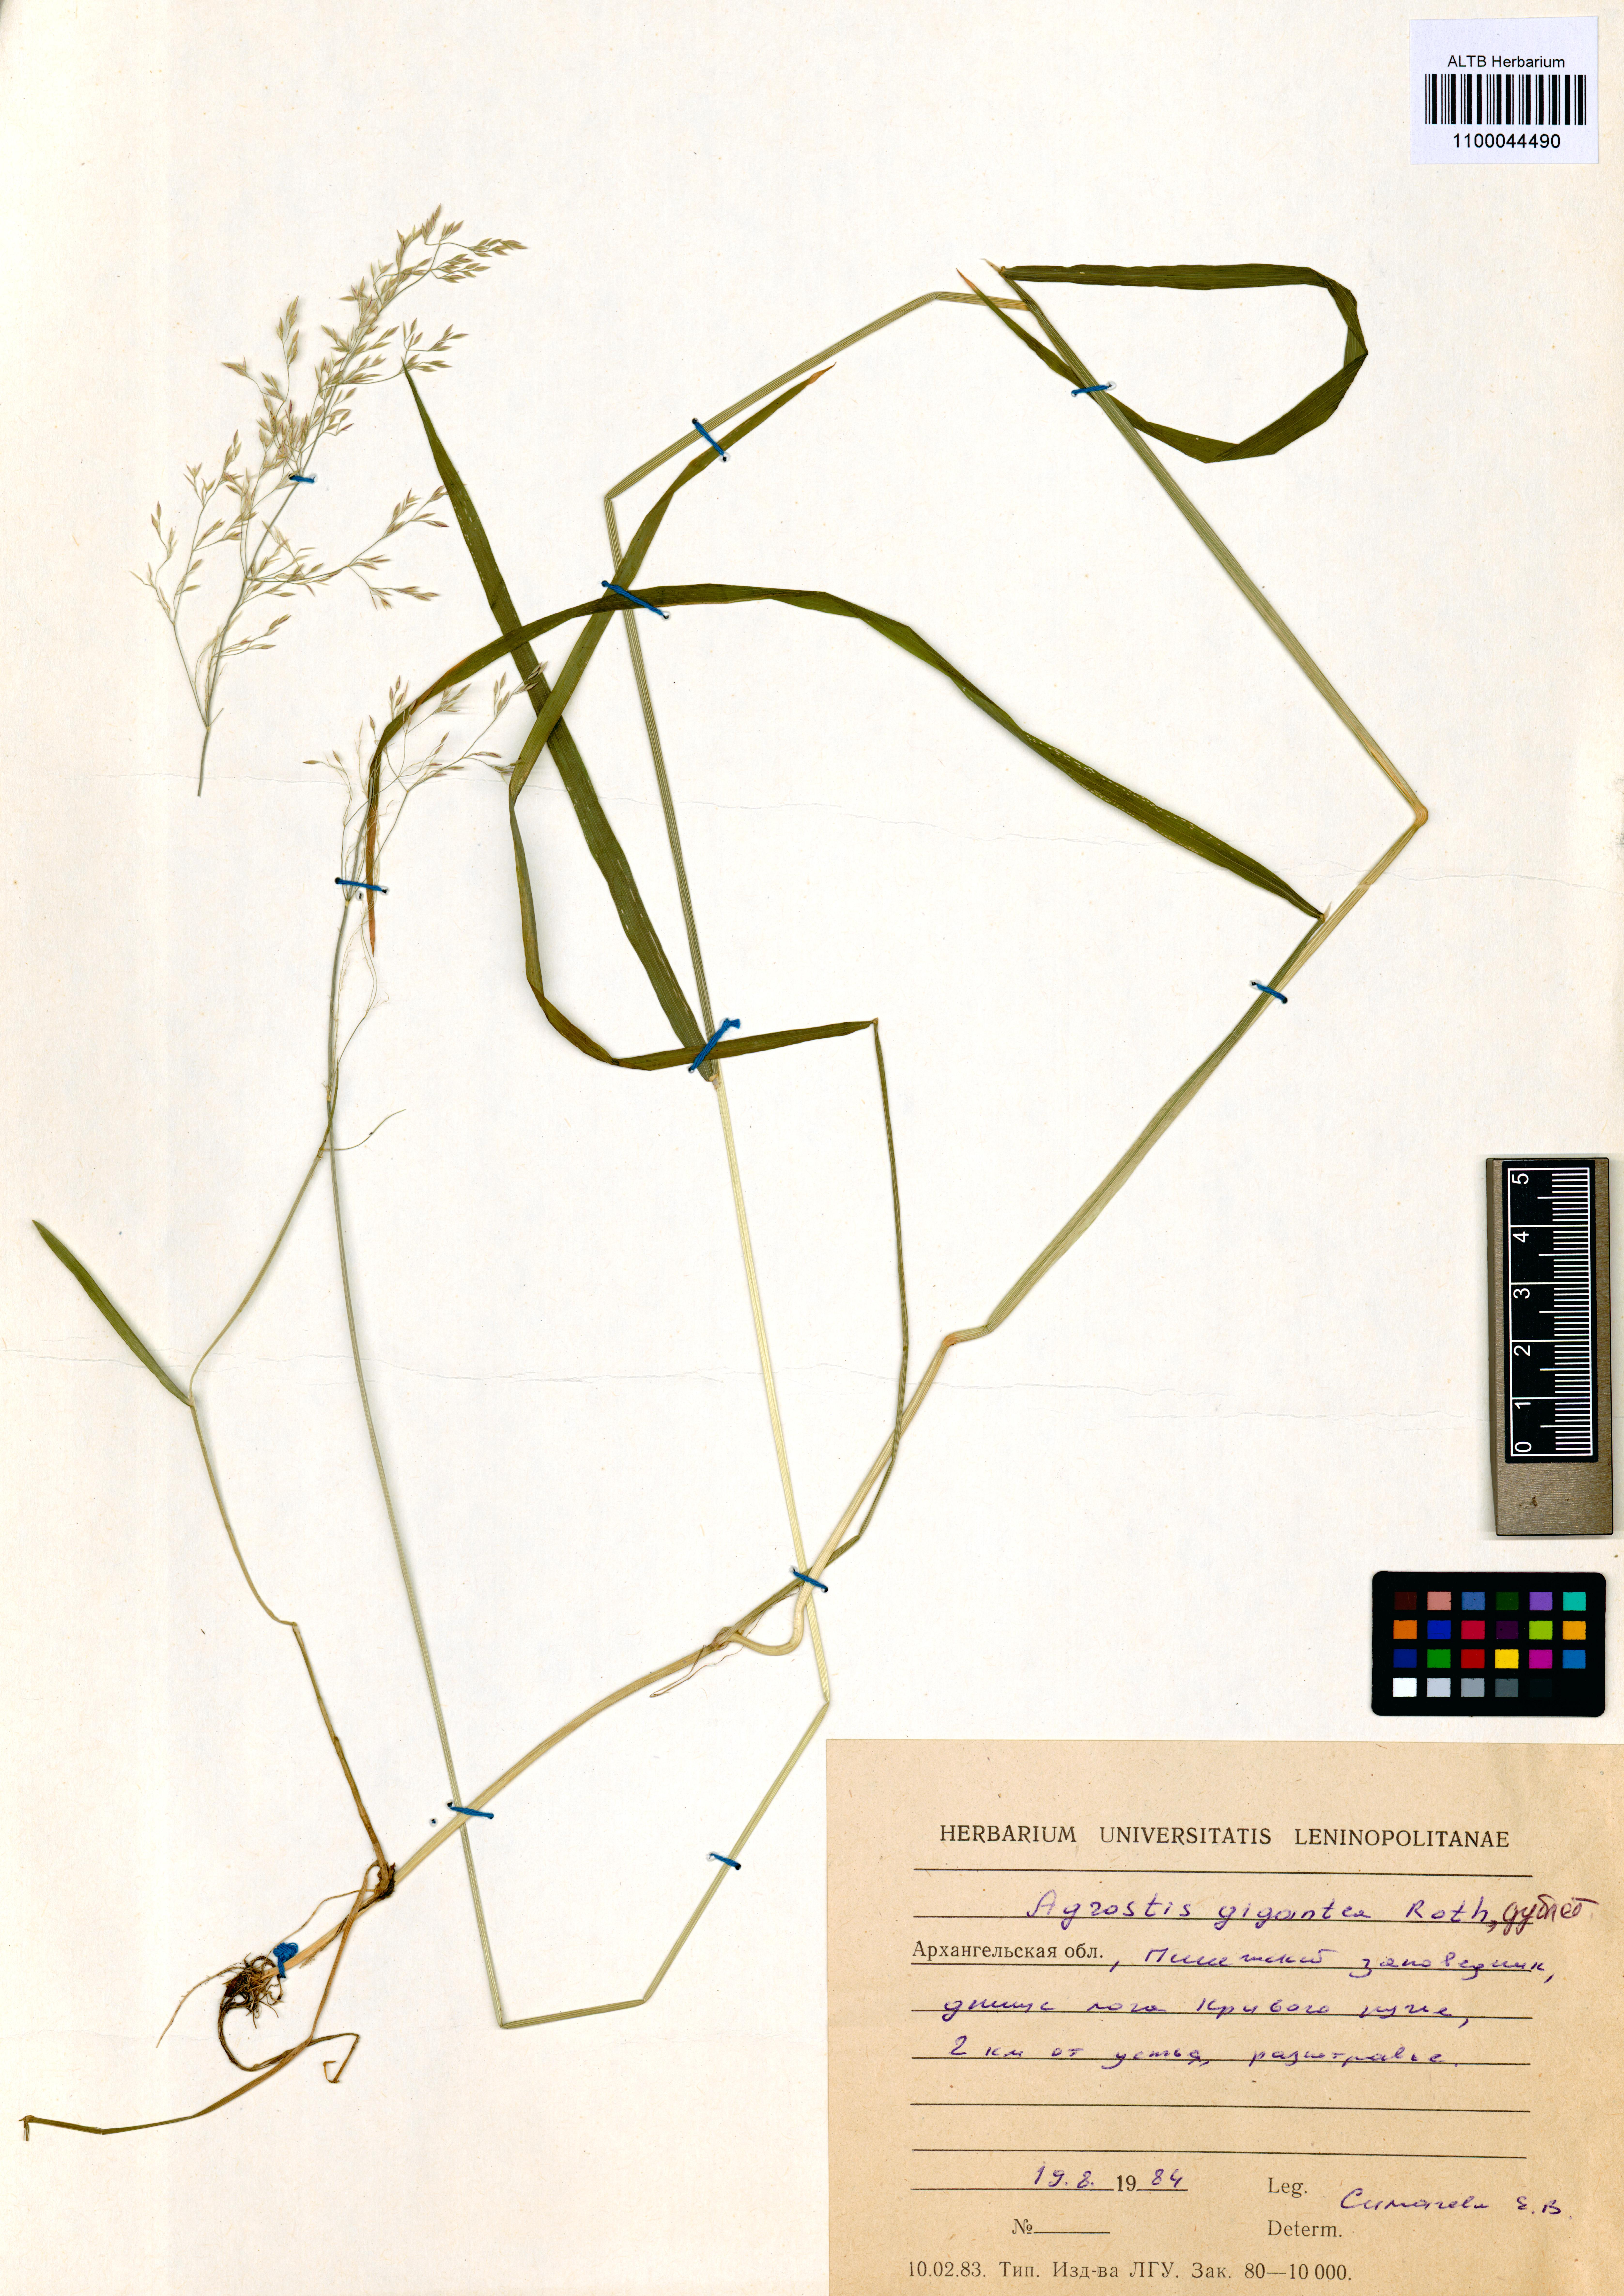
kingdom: Plantae
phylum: Tracheophyta
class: Liliopsida
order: Poales
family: Poaceae
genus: Agrostis
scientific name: Agrostis gigantea
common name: Black bent
